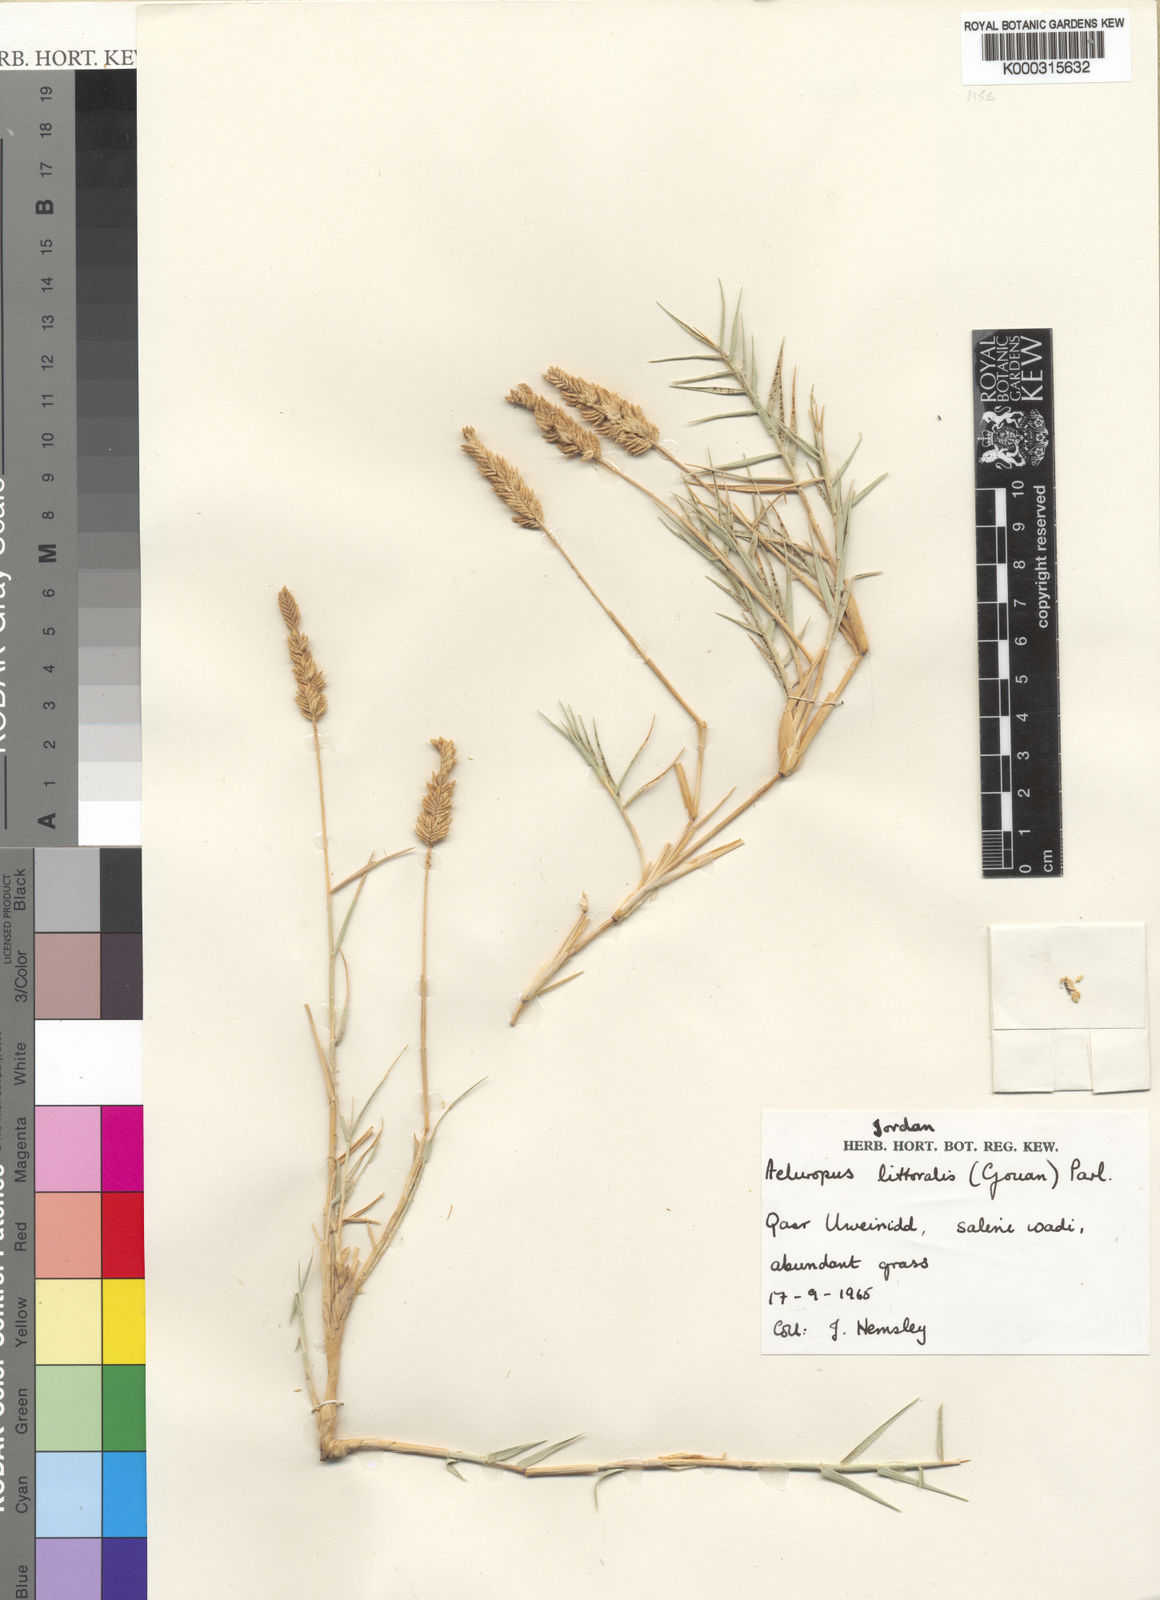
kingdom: Plantae
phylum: Tracheophyta
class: Liliopsida
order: Poales
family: Poaceae
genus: Aeluropus
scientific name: Aeluropus littoralis
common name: Indian walnut
